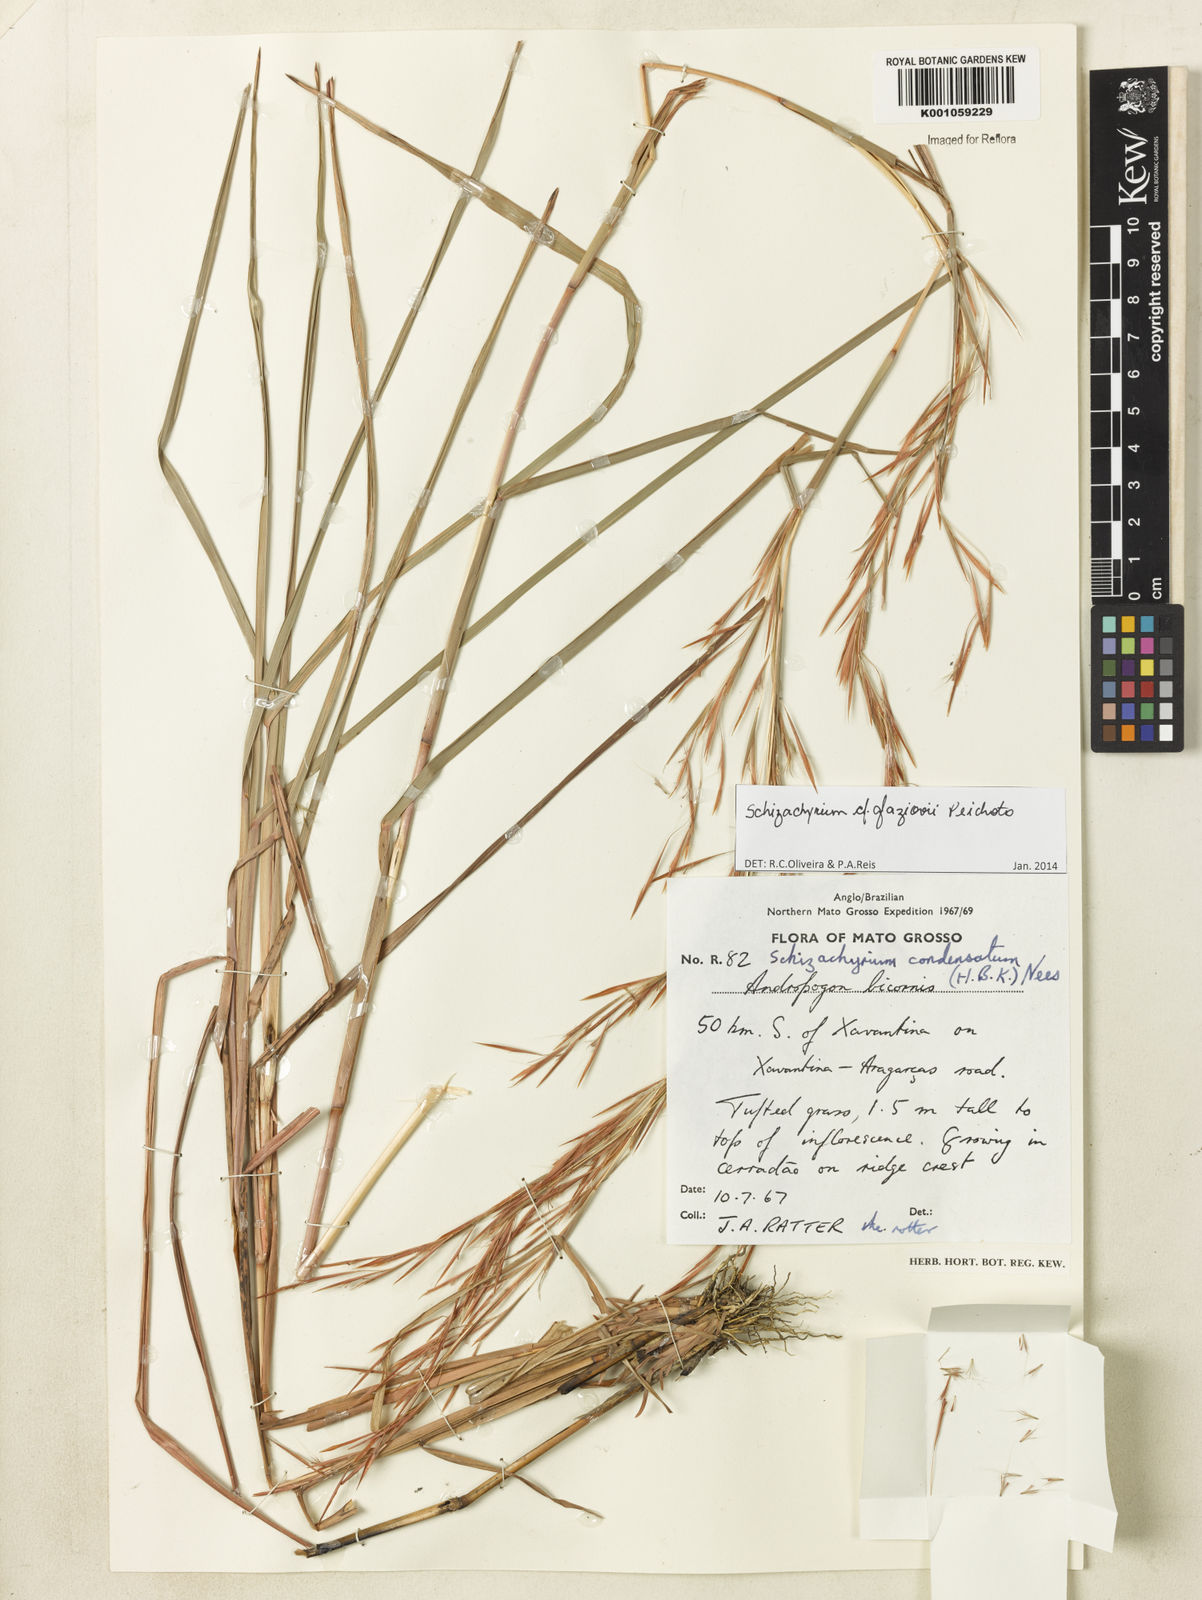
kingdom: Plantae
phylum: Tracheophyta
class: Liliopsida
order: Poales
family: Poaceae
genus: Schizachyrium
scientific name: Schizachyrium glaziovii
